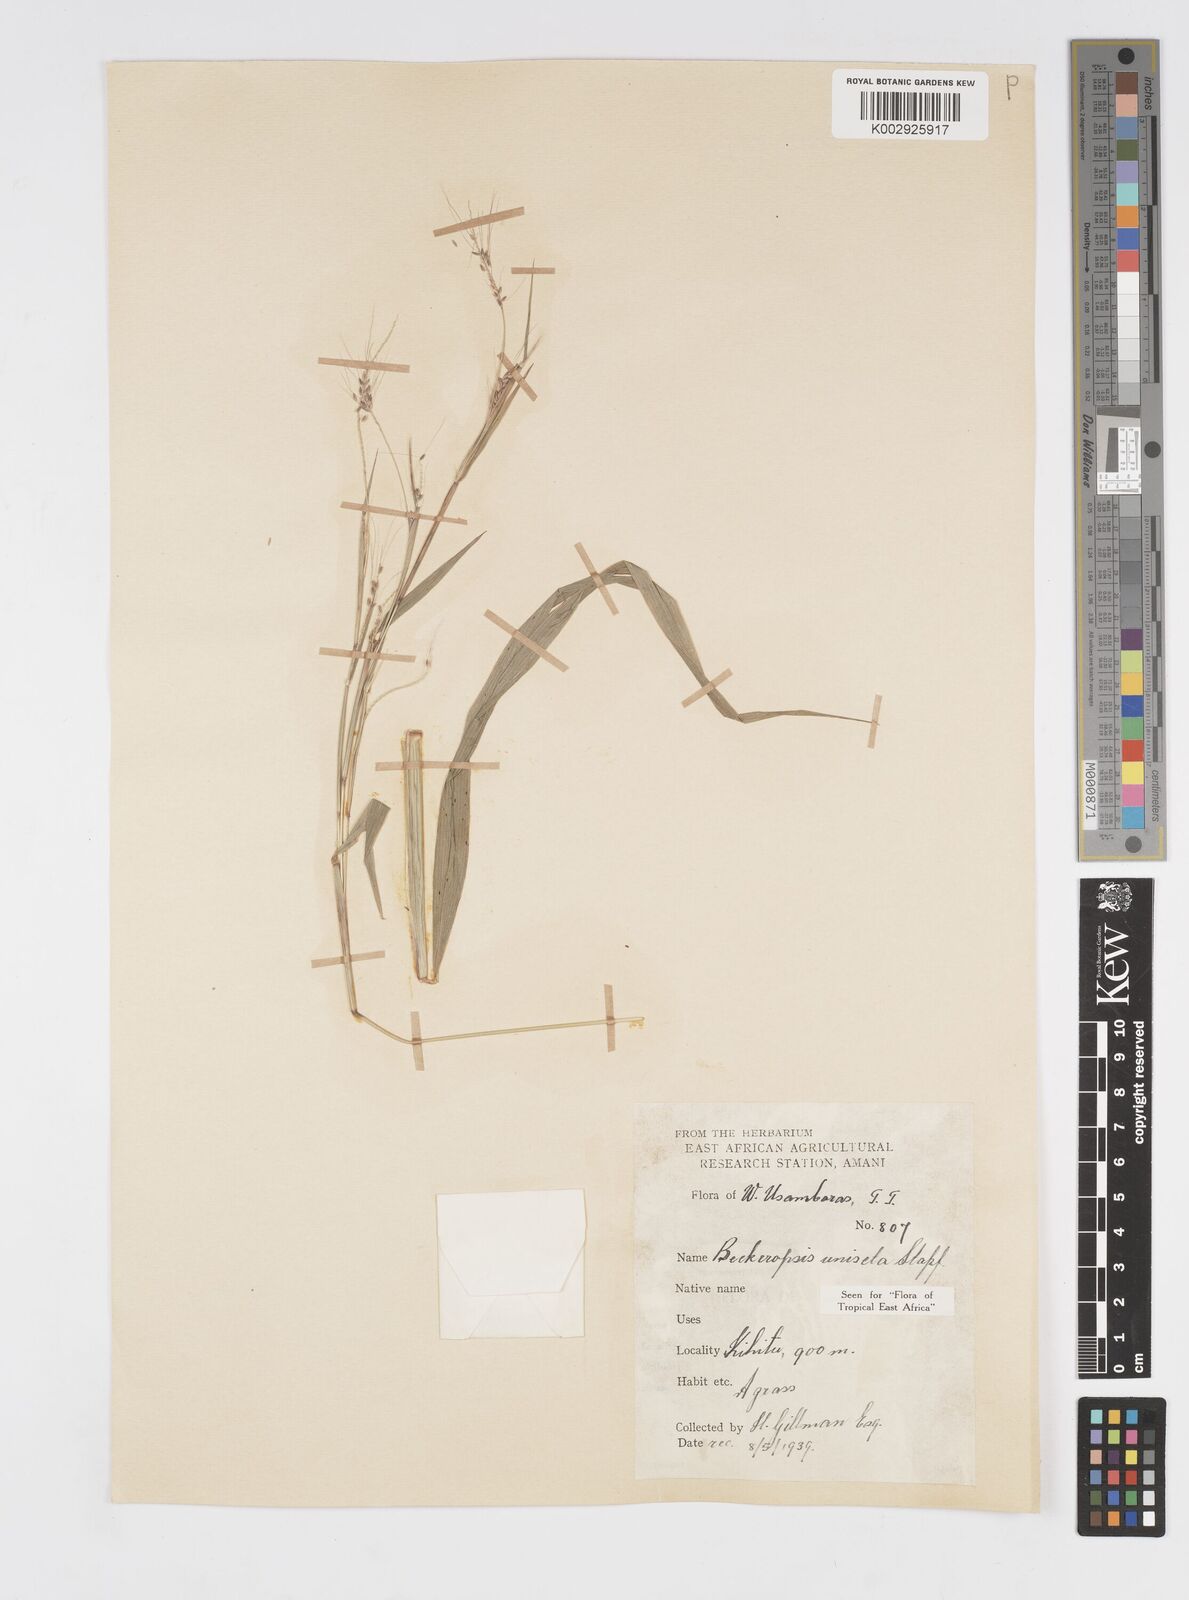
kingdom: Plantae
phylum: Tracheophyta
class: Liliopsida
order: Poales
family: Poaceae
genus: Cenchrus
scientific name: Cenchrus unisetus
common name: Natal grass
